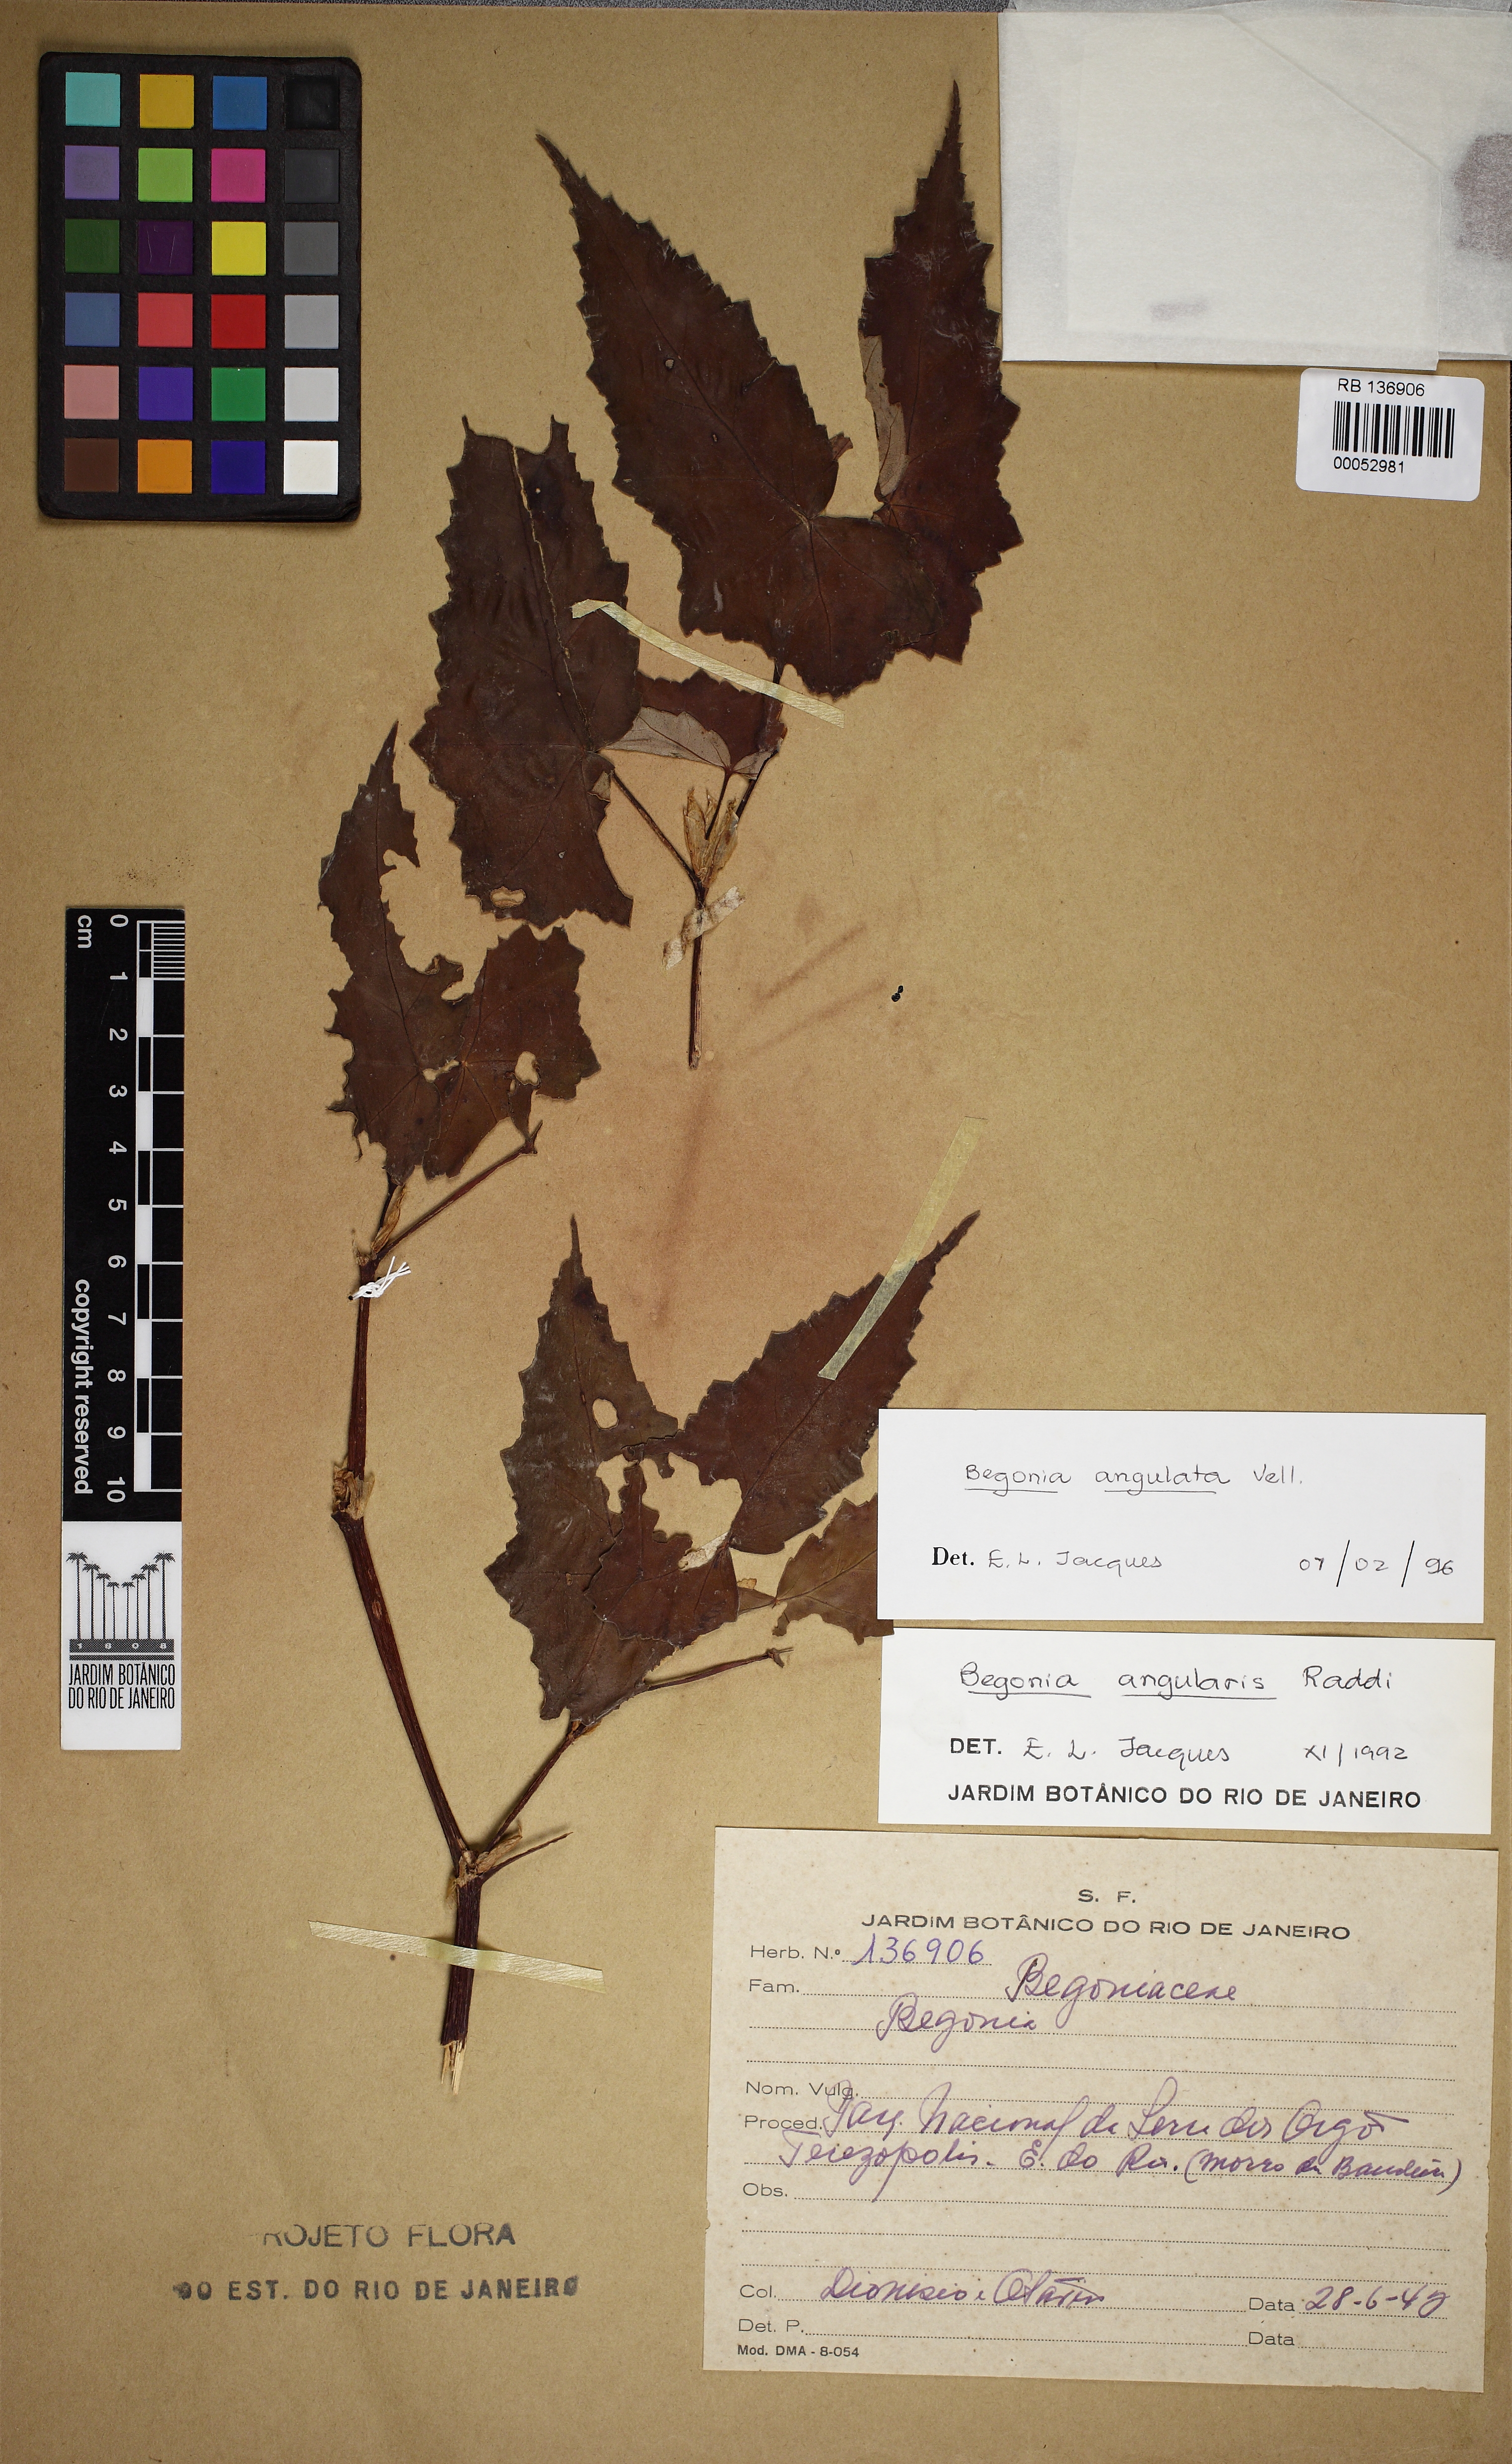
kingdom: Plantae
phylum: Tracheophyta
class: Magnoliopsida
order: Cucurbitales
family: Begoniaceae
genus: Begonia
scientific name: Begonia angulata
